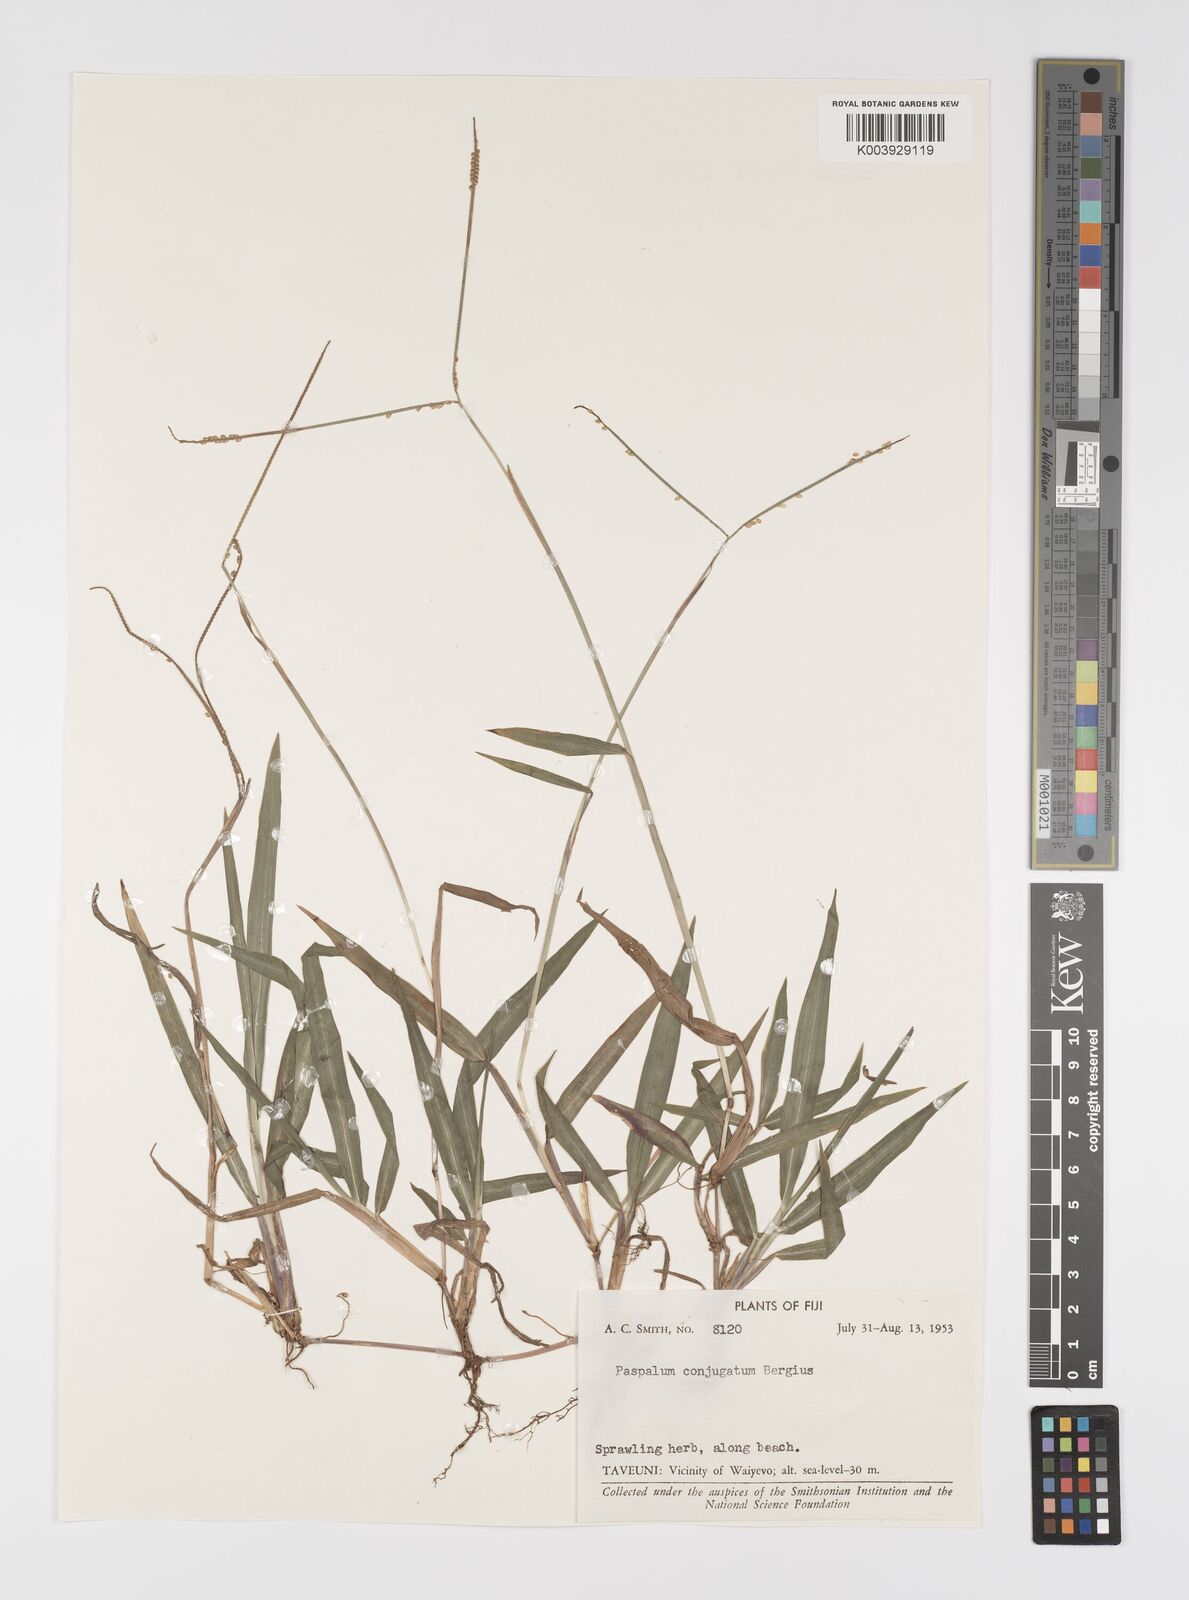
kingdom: Plantae
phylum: Tracheophyta
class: Liliopsida
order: Poales
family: Poaceae
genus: Paspalum
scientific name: Paspalum conjugatum
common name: Hilograss
